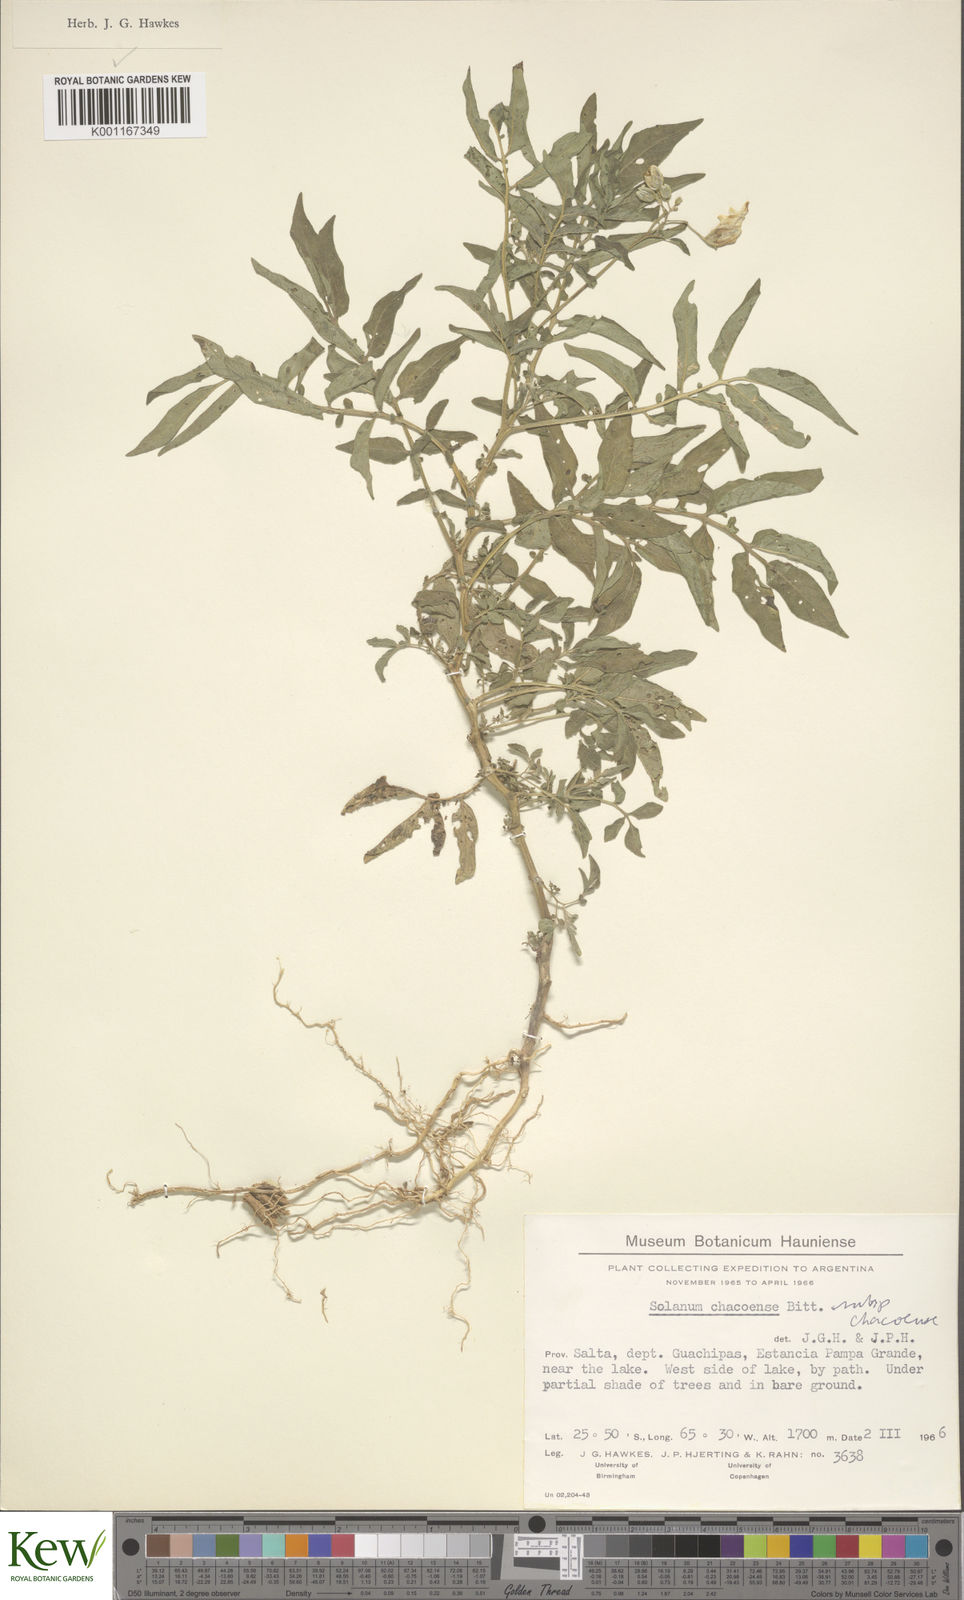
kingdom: Plantae
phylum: Tracheophyta
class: Magnoliopsida
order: Solanales
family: Solanaceae
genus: Solanum
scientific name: Solanum chacoense
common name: Chaco potato
